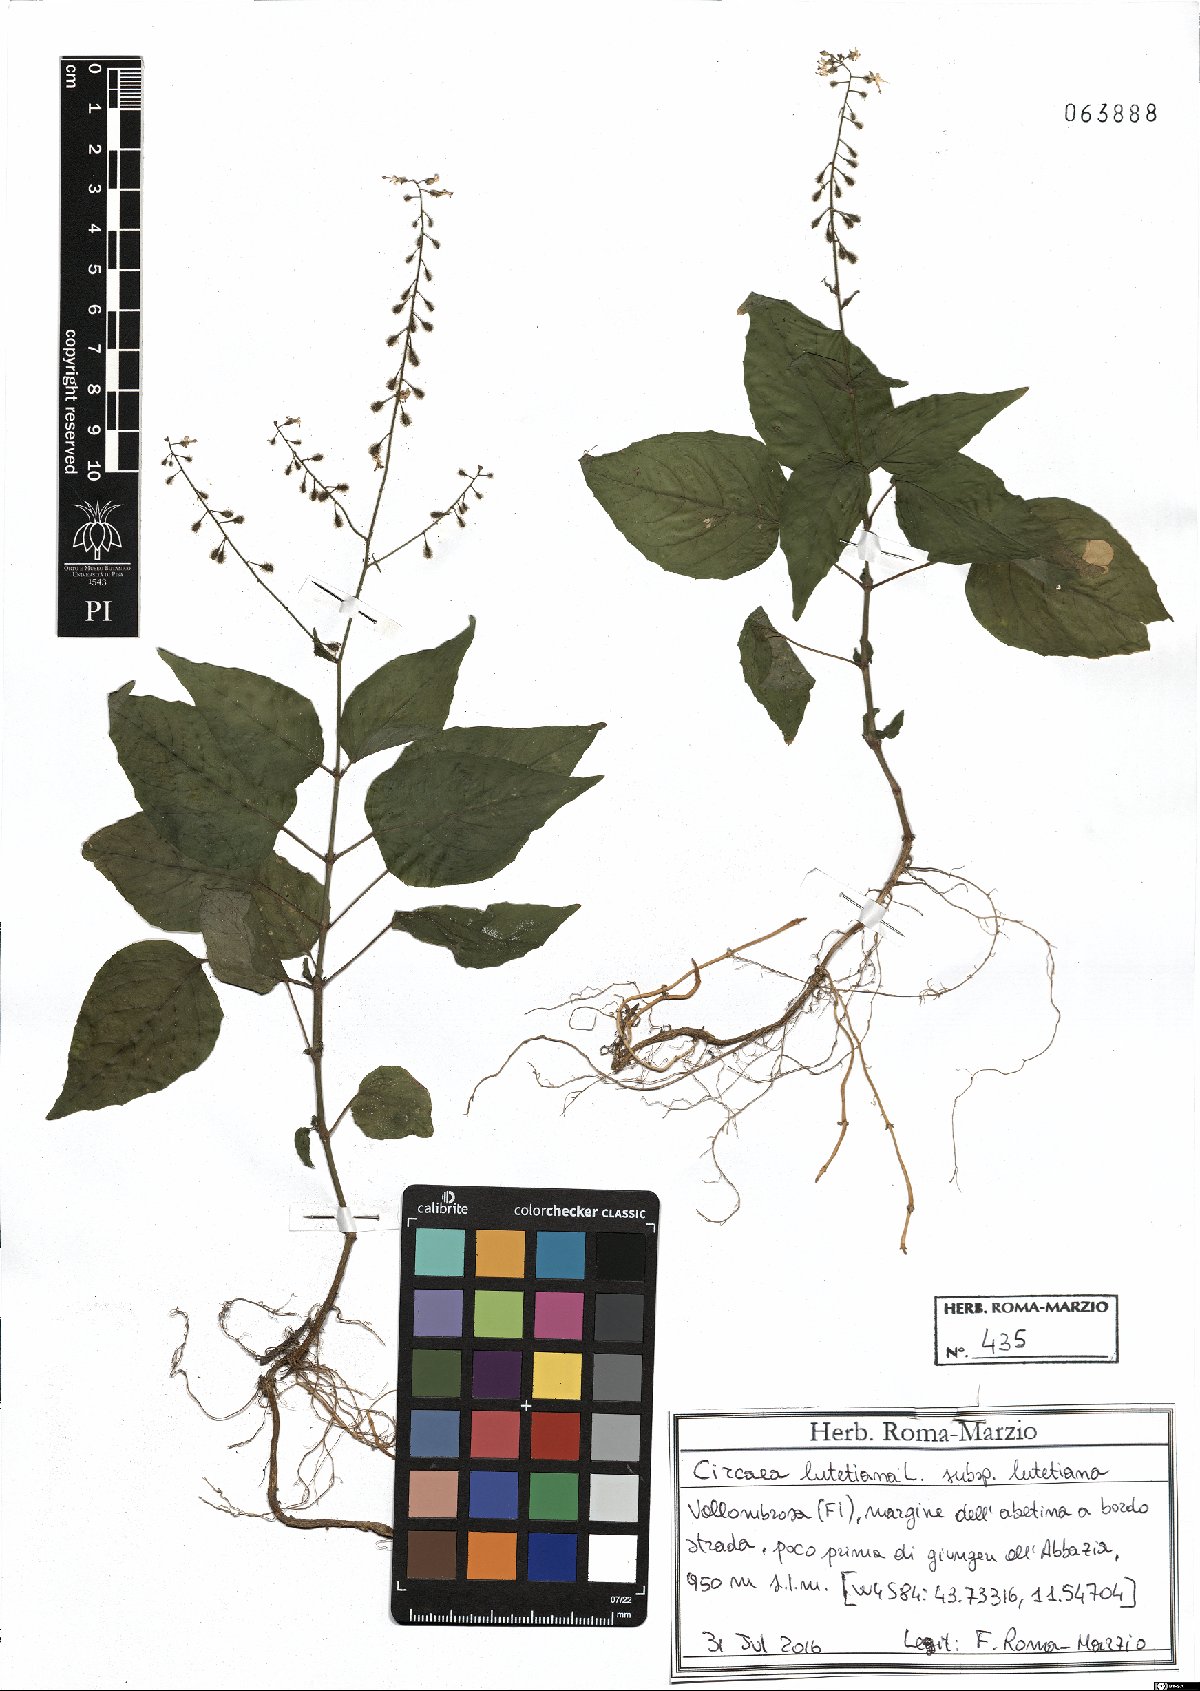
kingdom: Plantae
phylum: Tracheophyta
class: Magnoliopsida
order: Myrtales
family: Onagraceae
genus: Circaea
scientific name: Circaea lutetiana
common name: Enchanter's-nightshade
